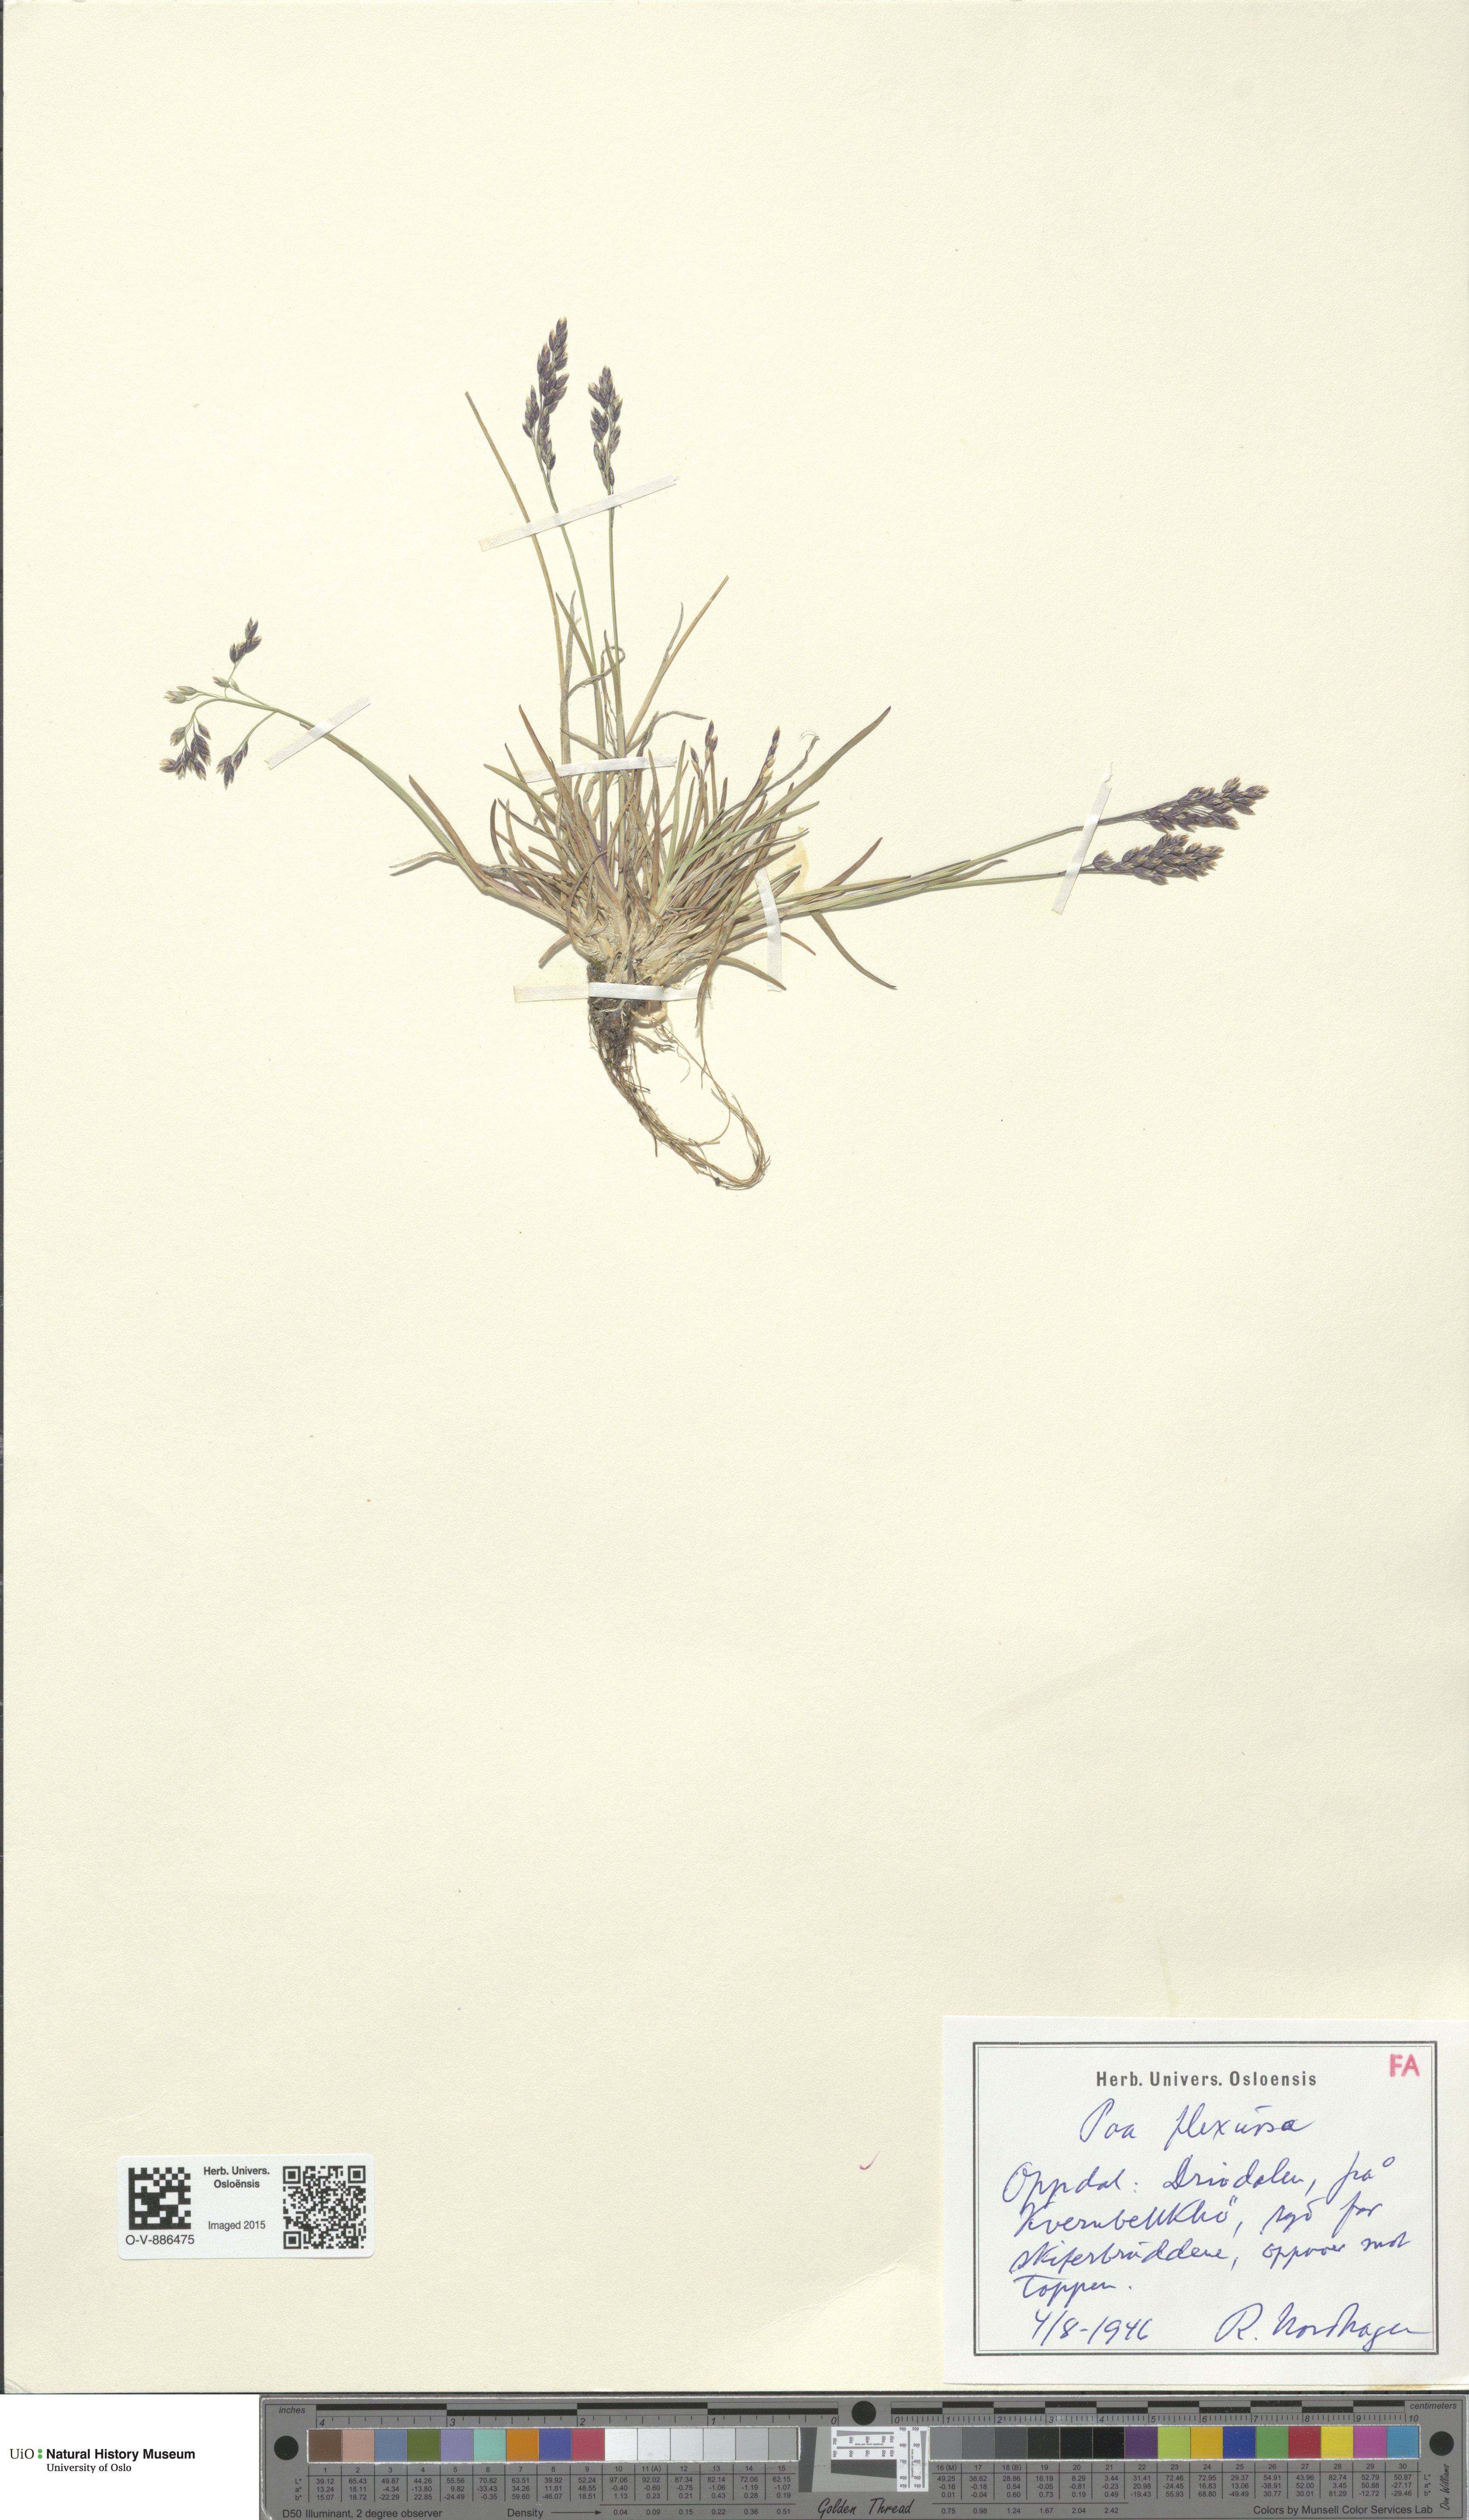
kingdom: Plantae
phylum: Tracheophyta
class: Liliopsida
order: Poales
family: Poaceae
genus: Poa
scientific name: Poa flexuosa
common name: Wavy meadow-grass
